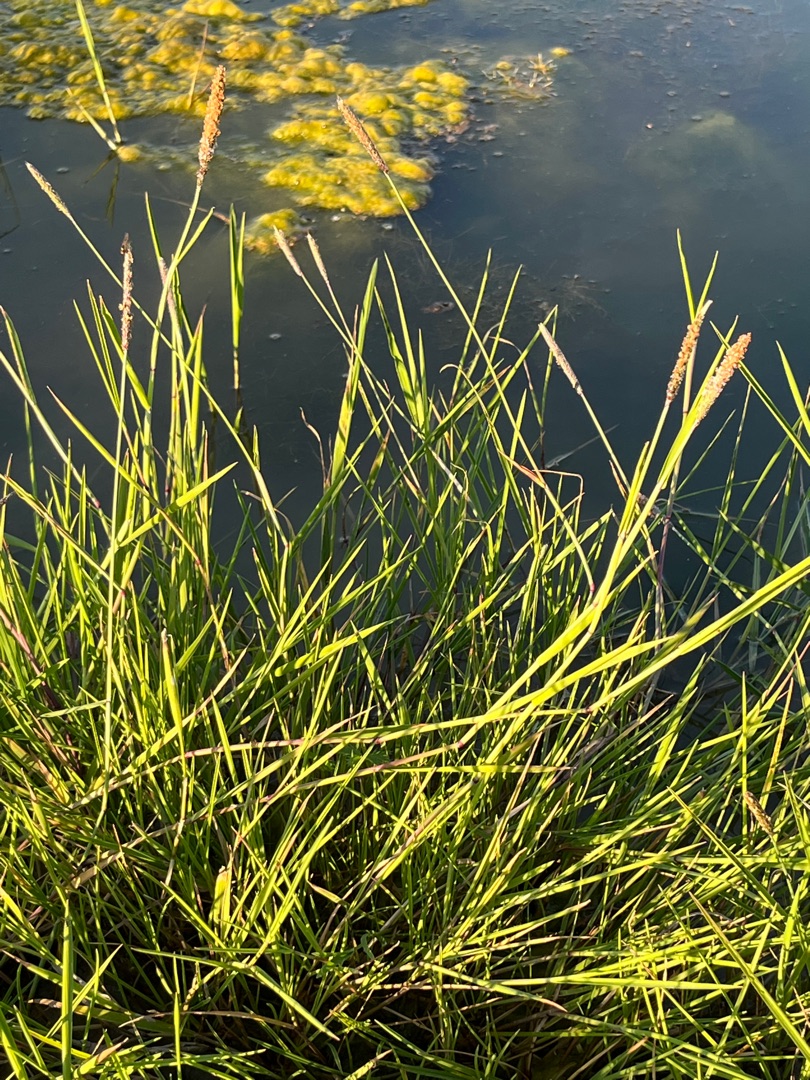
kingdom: Plantae
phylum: Tracheophyta
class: Liliopsida
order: Poales
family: Poaceae
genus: Alopecurus
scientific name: Alopecurus geniculatus
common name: Knæbøjet rævehale
